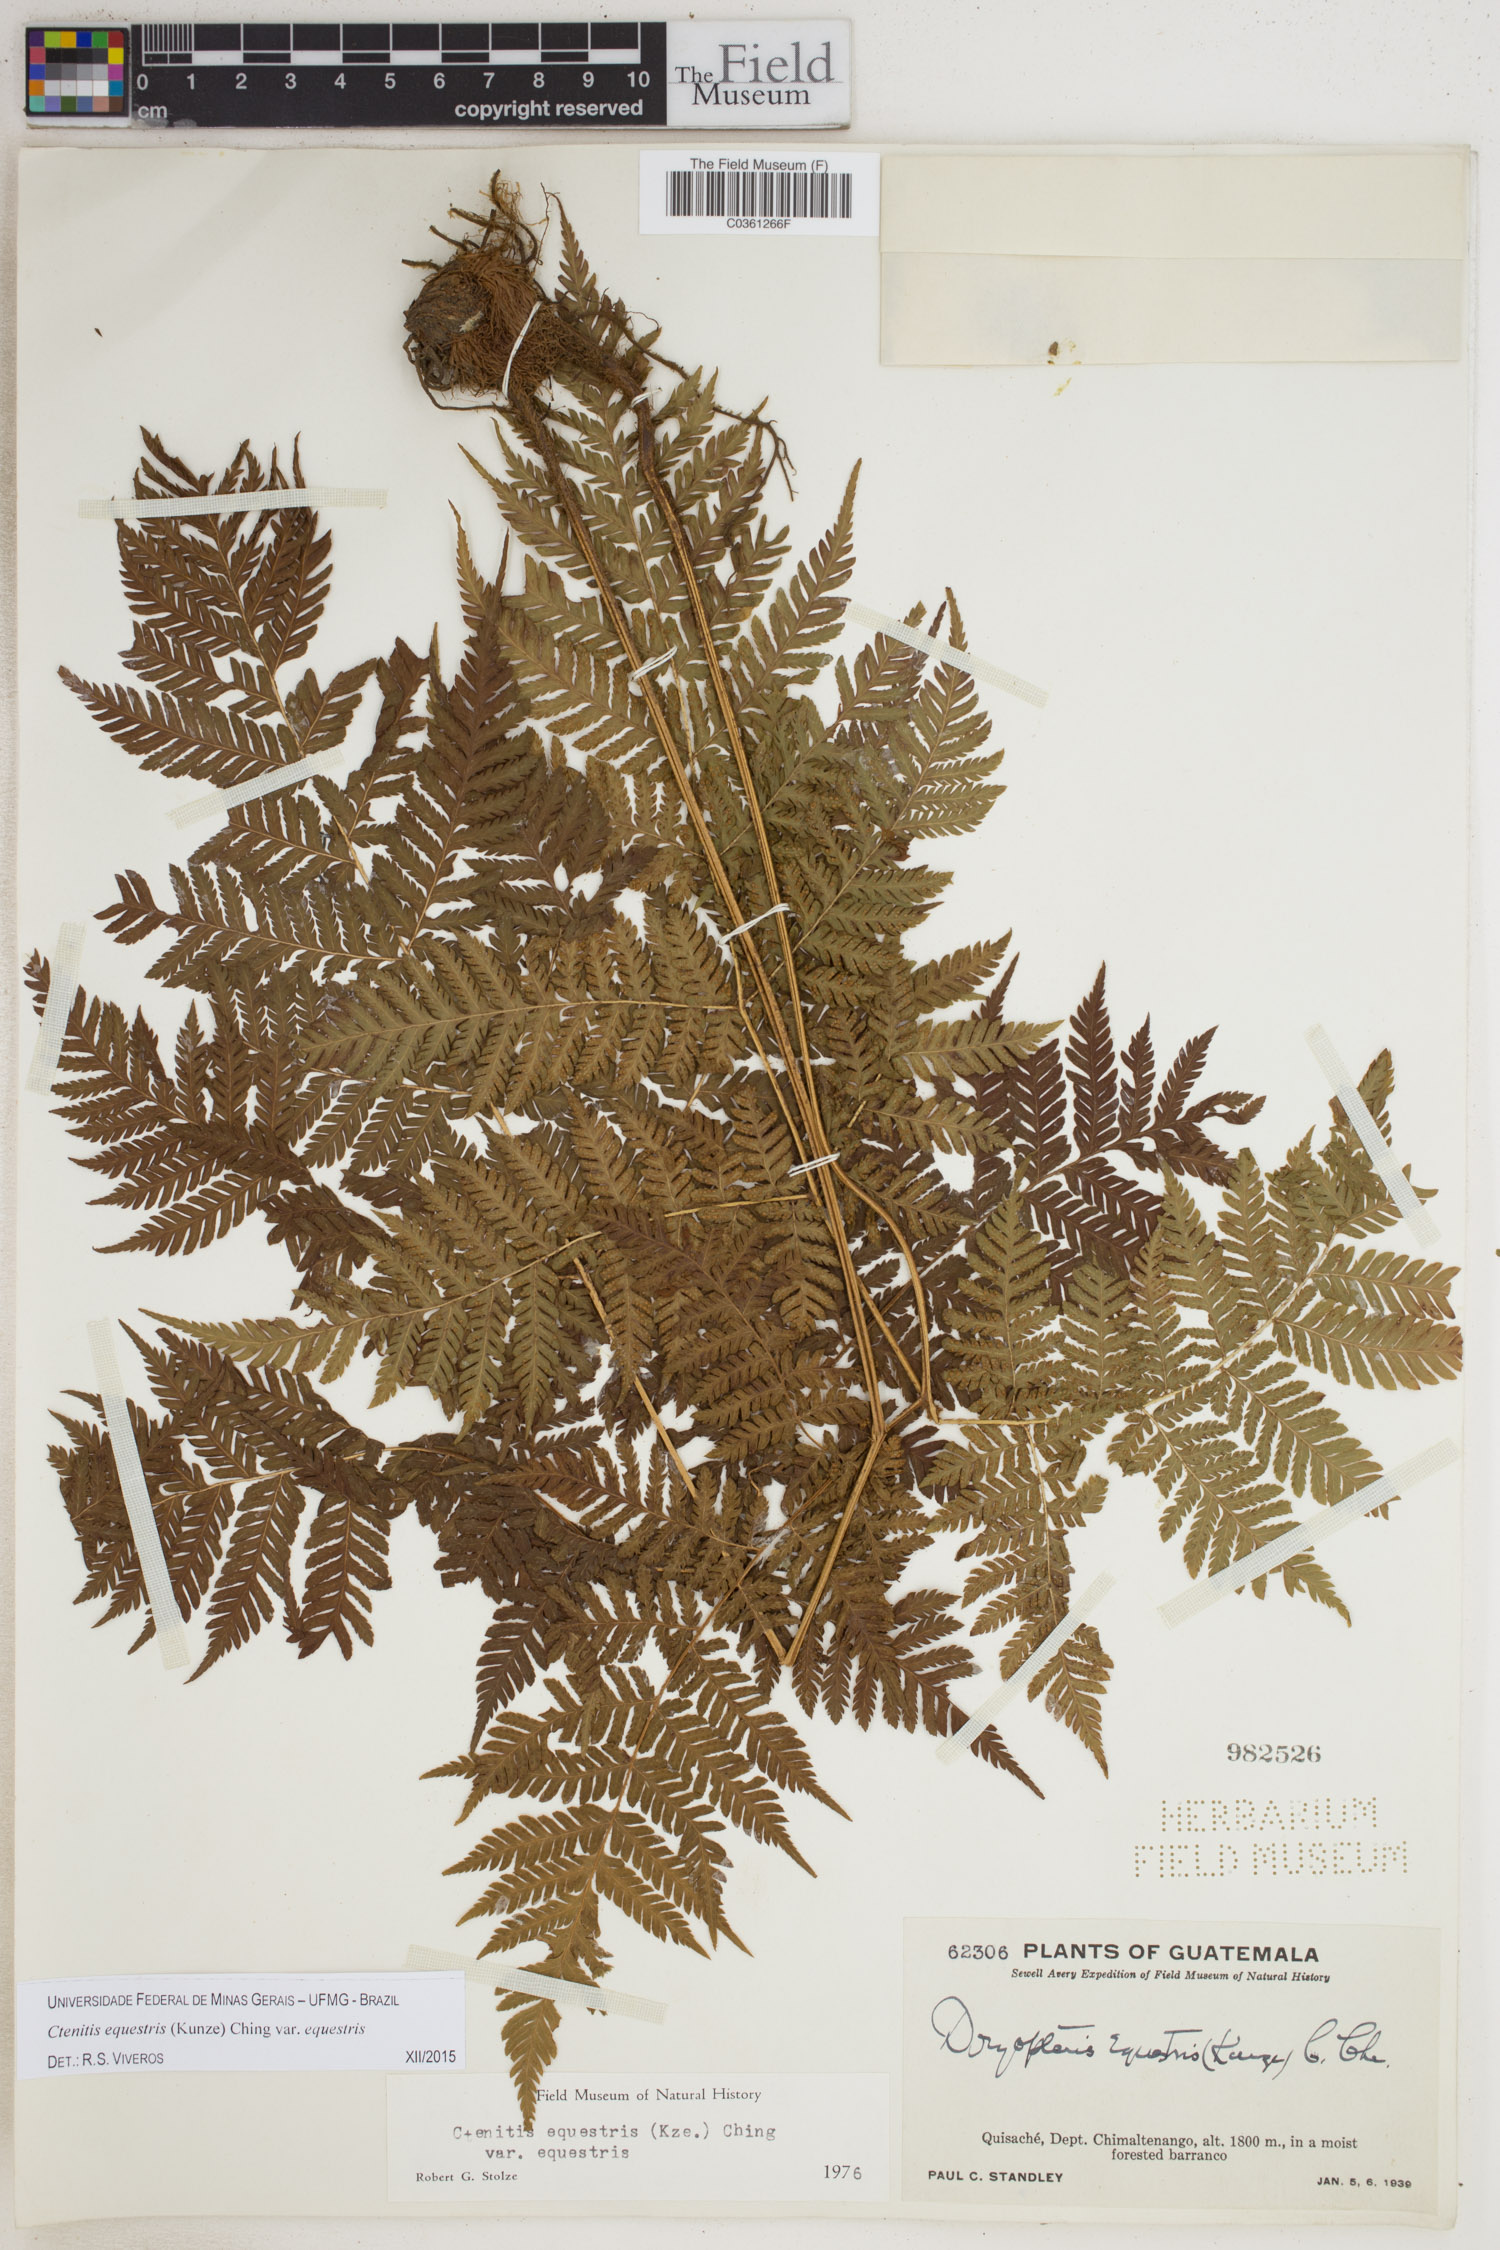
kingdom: Plantae
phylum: Tracheophyta
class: Polypodiopsida
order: Polypodiales
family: Dryopteridaceae
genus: Ctenitis
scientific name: Ctenitis equestris
